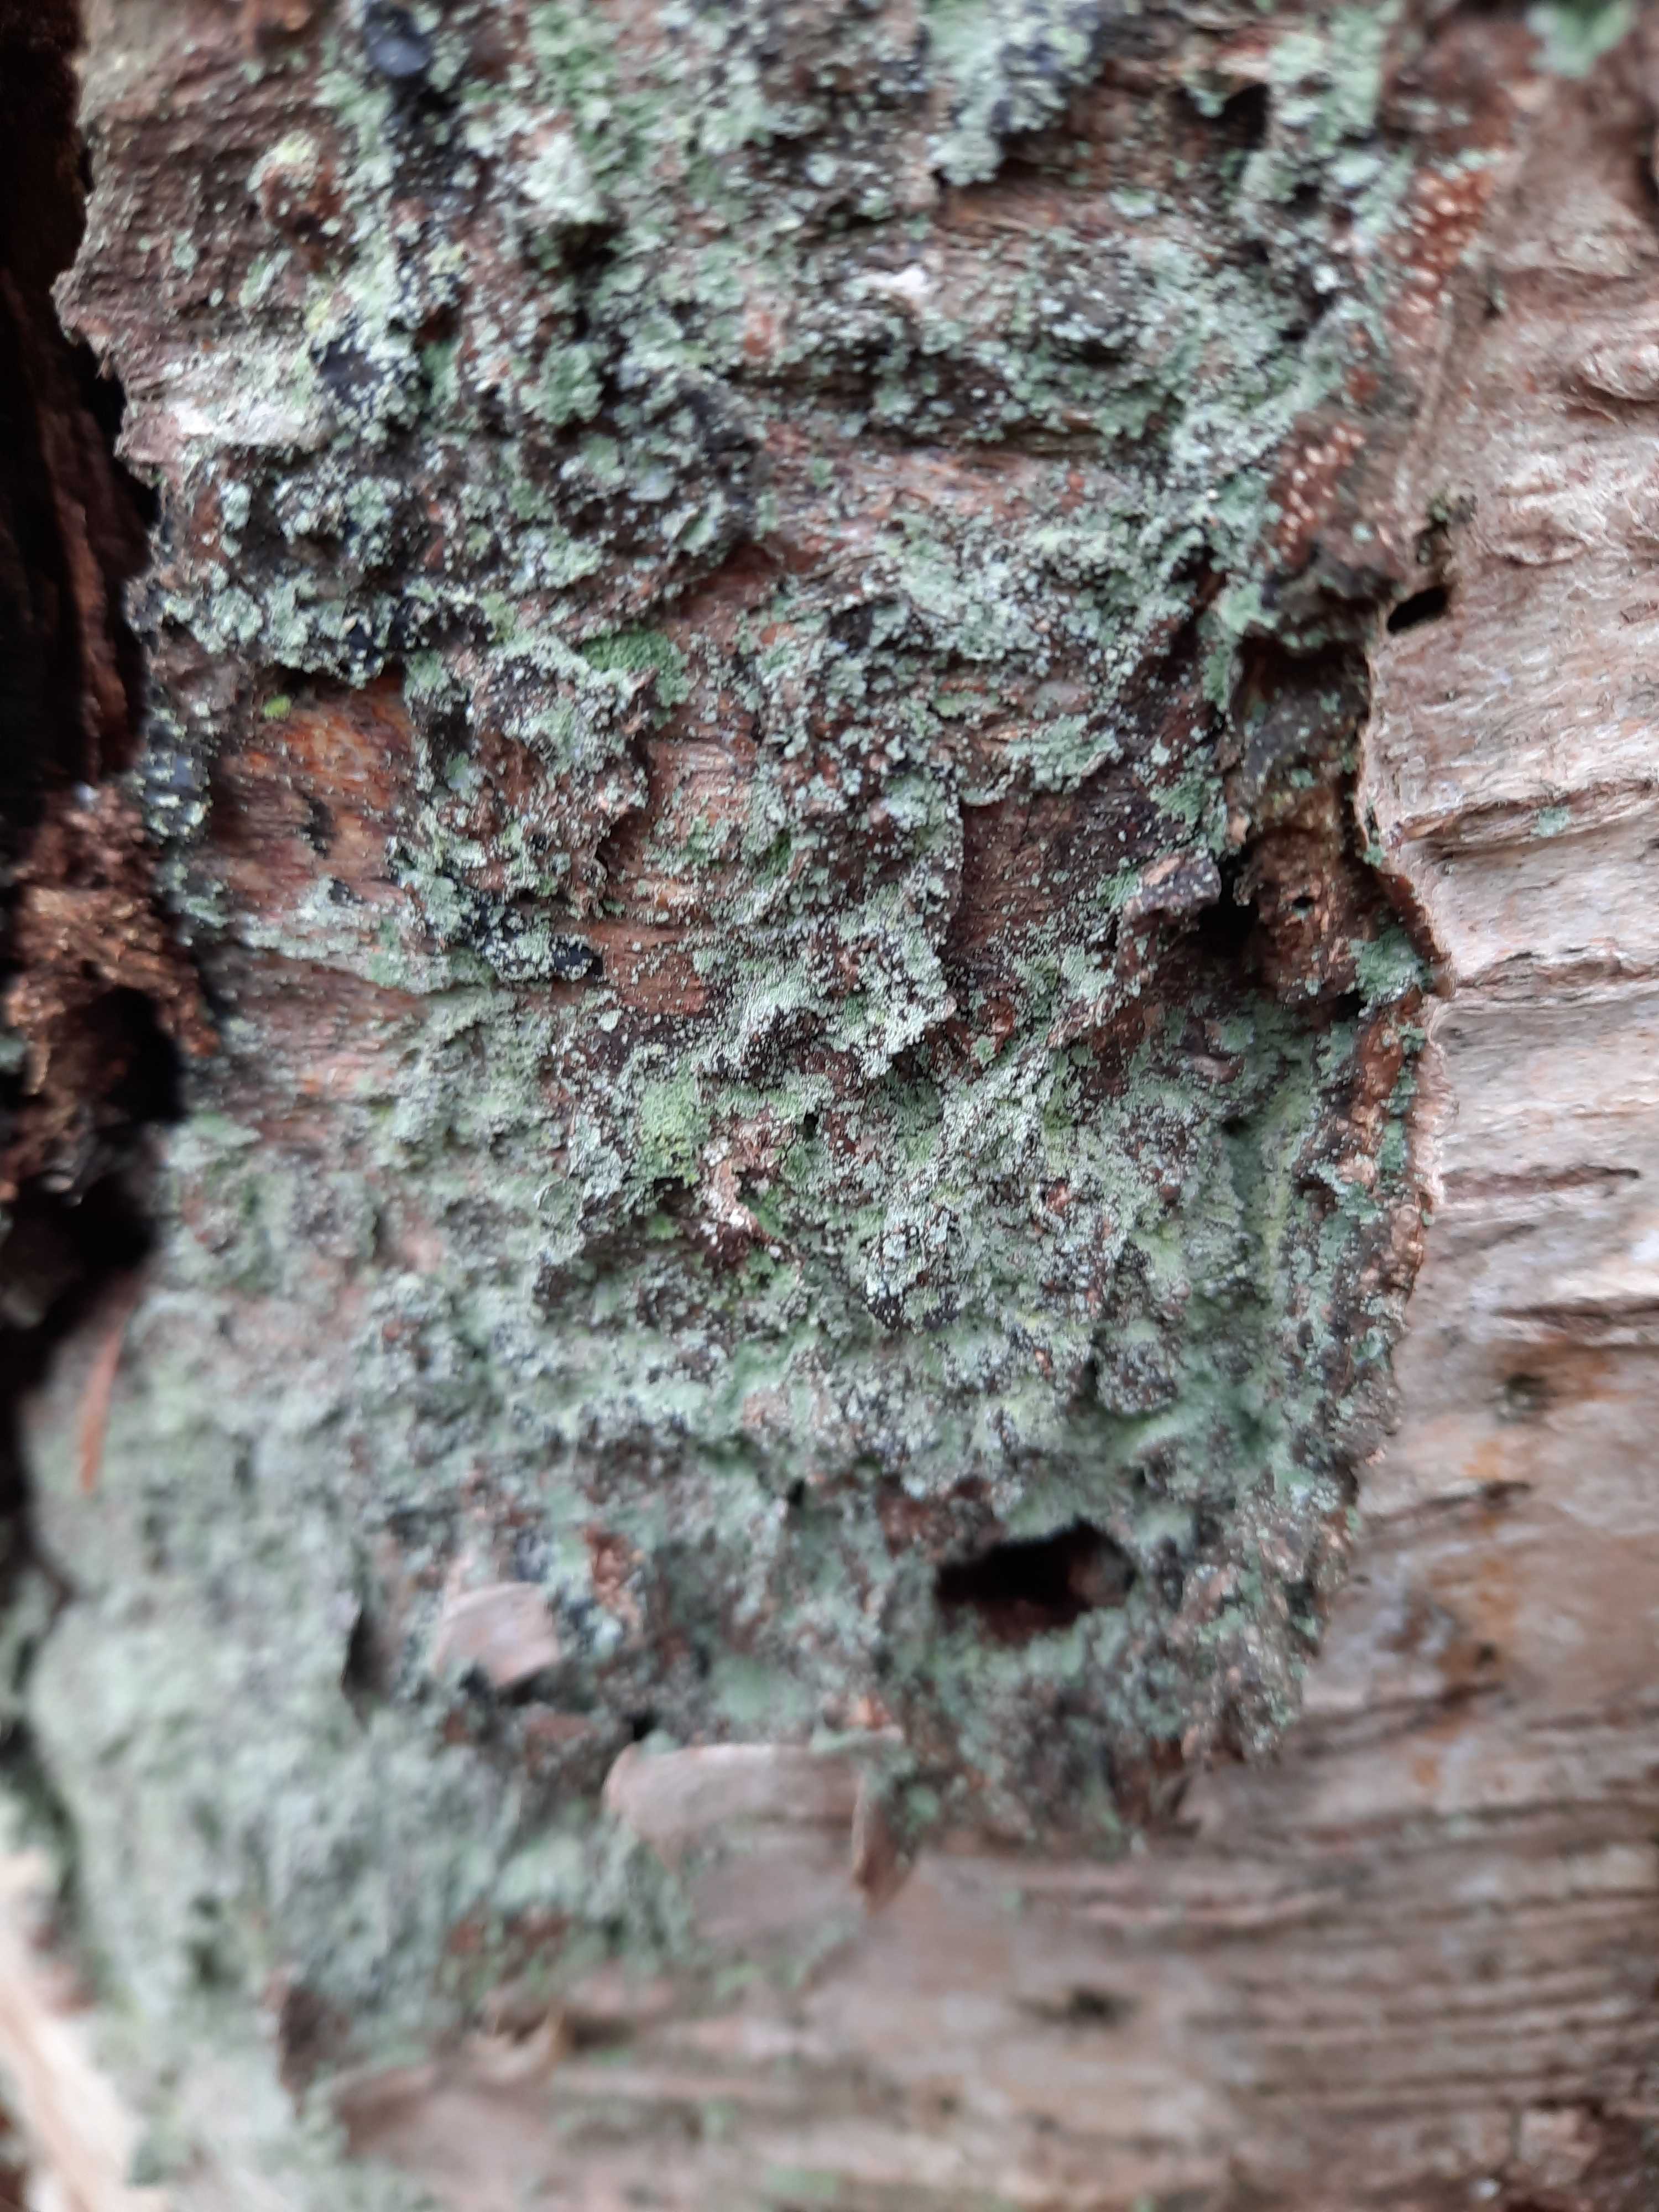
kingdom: Plantae
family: Lecanoromycetidae
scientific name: Lecanoromycetidae
